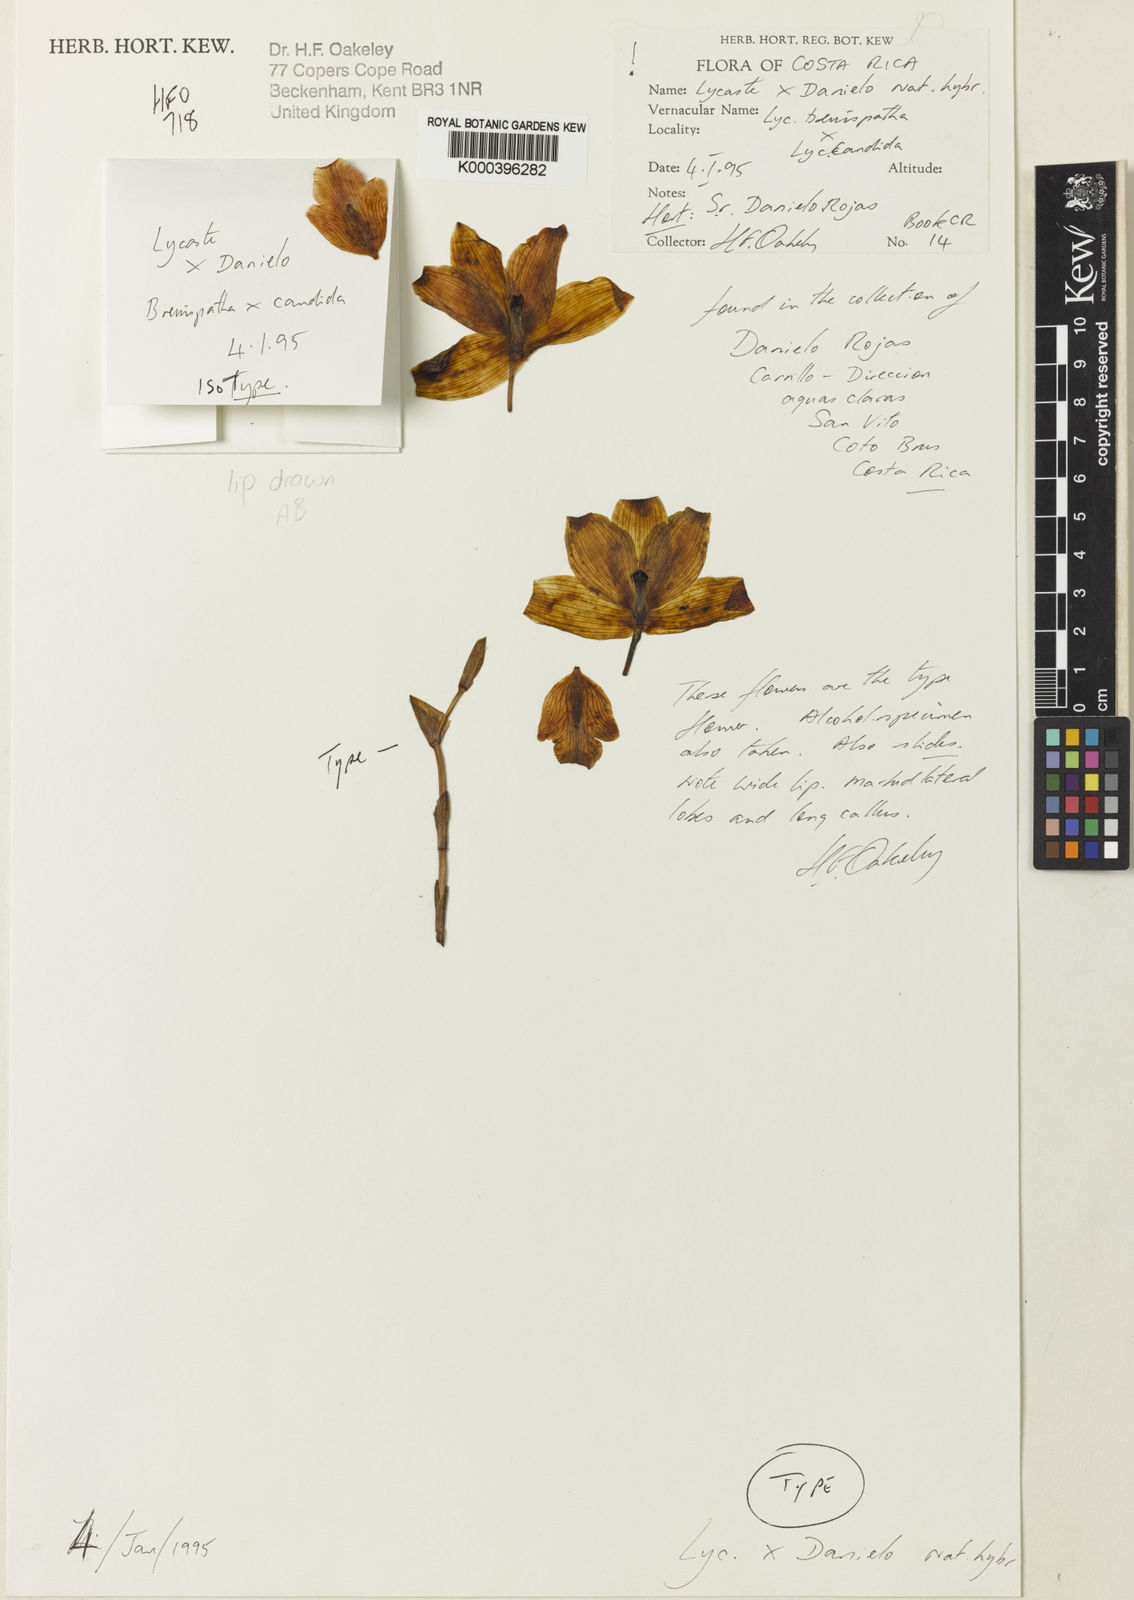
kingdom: Plantae
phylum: Tracheophyta
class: Liliopsida
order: Asparagales
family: Orchidaceae
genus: Lycaste
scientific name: Lycaste
